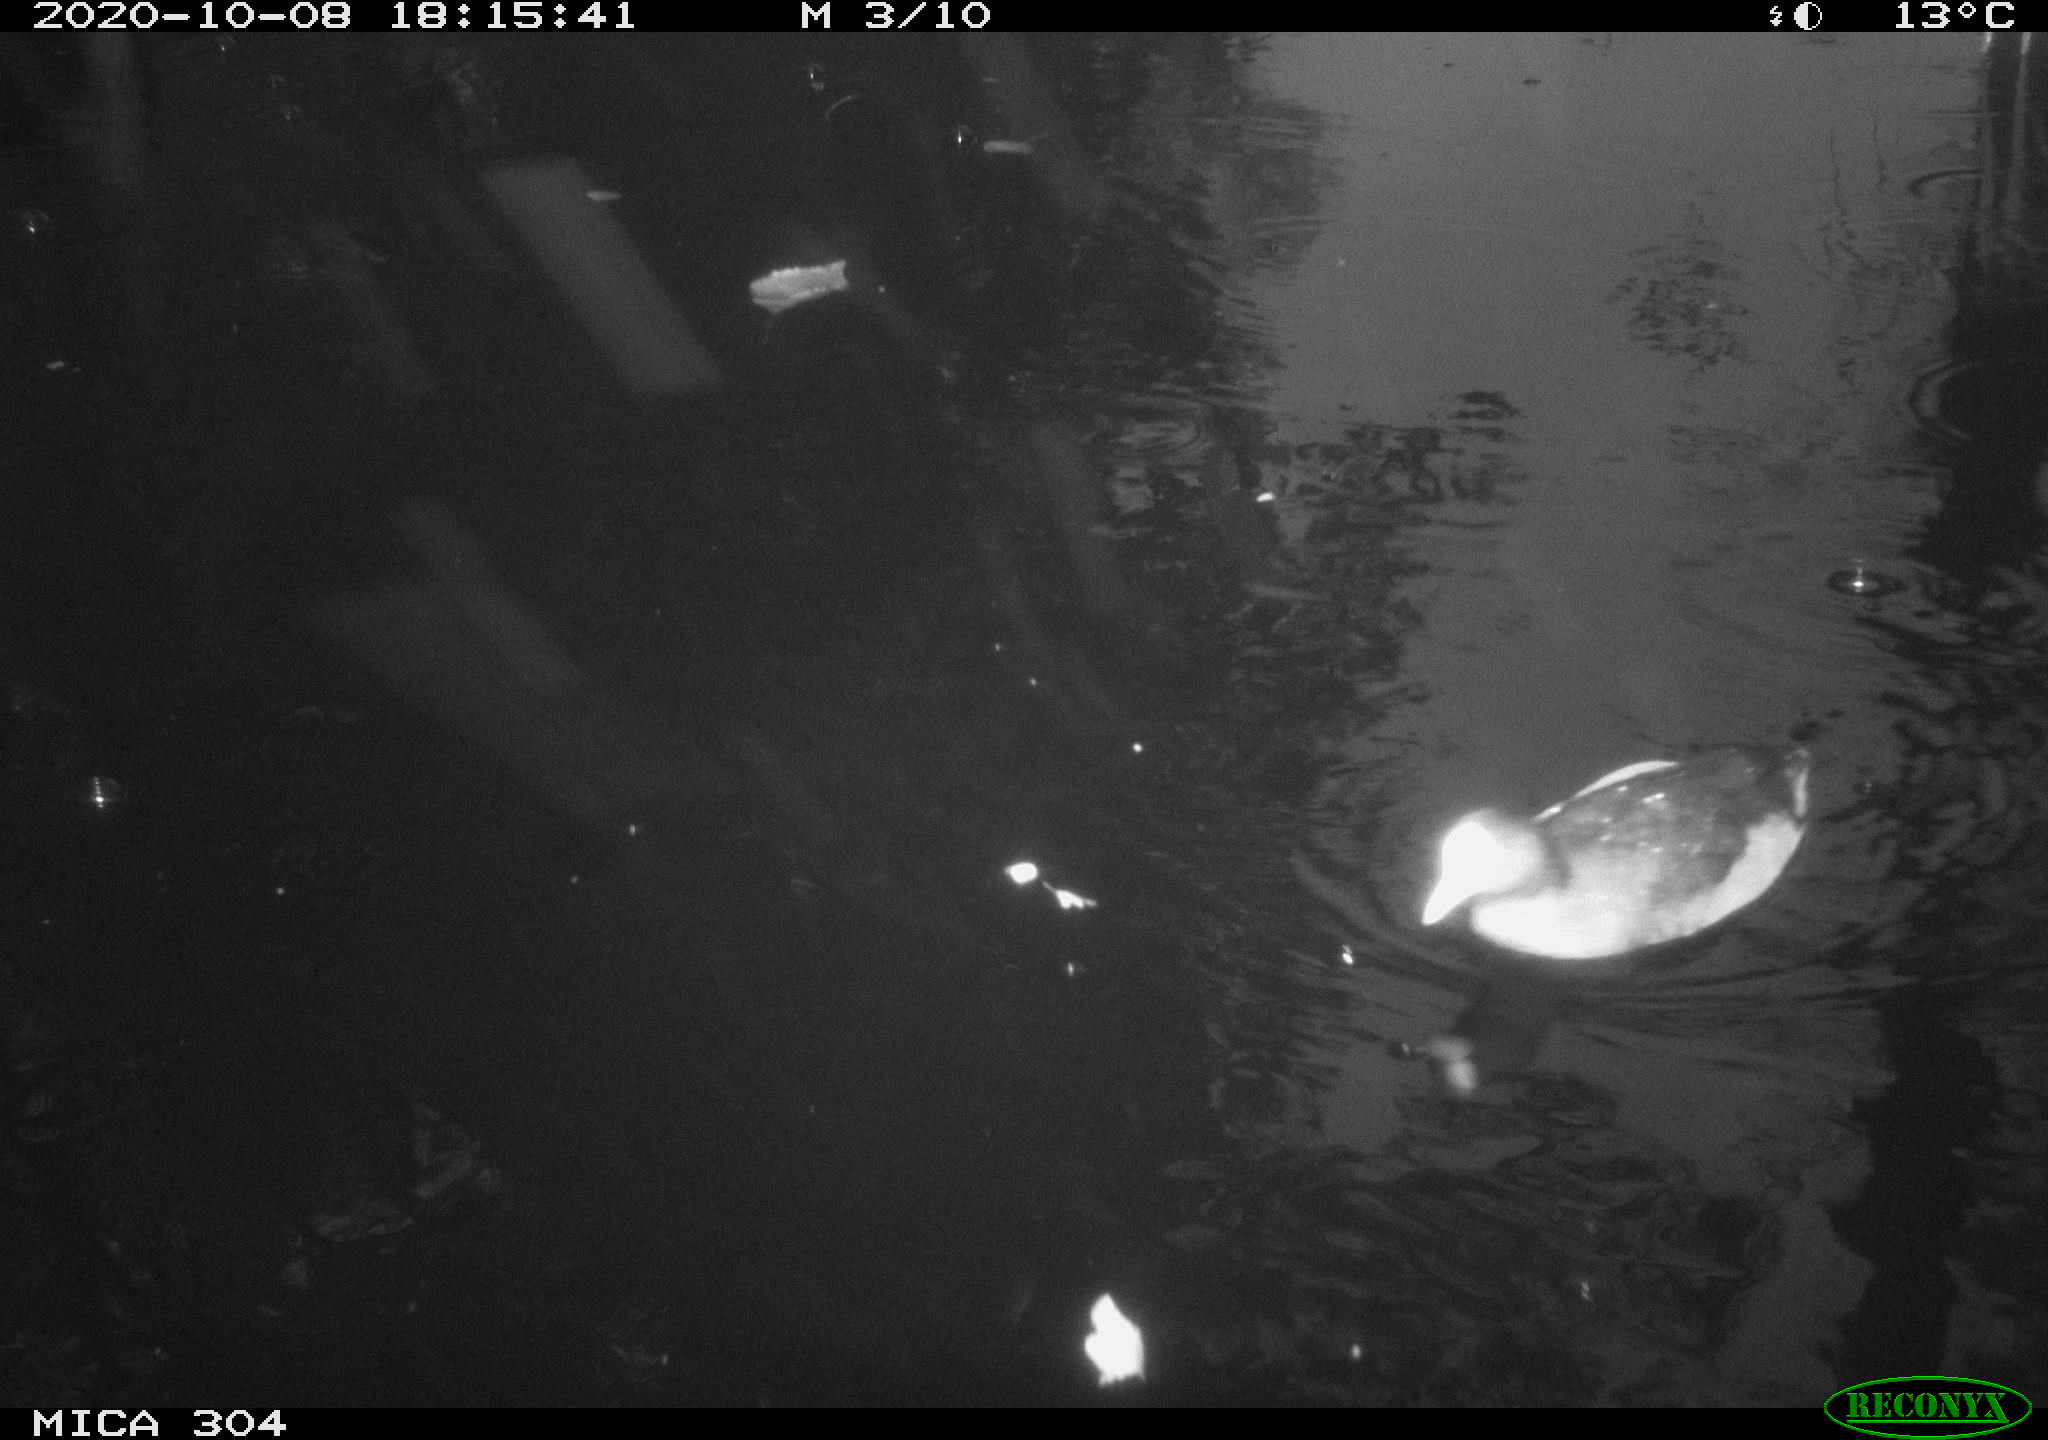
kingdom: Animalia
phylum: Chordata
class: Aves
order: Anseriformes
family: Anatidae
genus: Mareca
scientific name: Mareca strepera
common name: Gadwall
